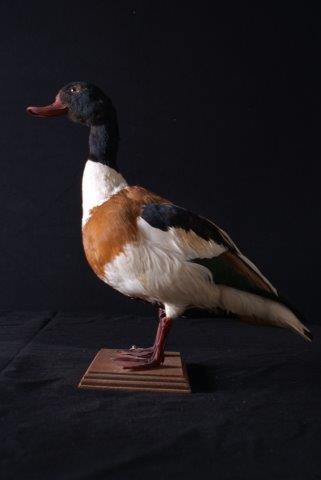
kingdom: Animalia
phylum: Chordata
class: Aves
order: Anseriformes
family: Anatidae
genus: Tadorna
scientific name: Tadorna tadorna
